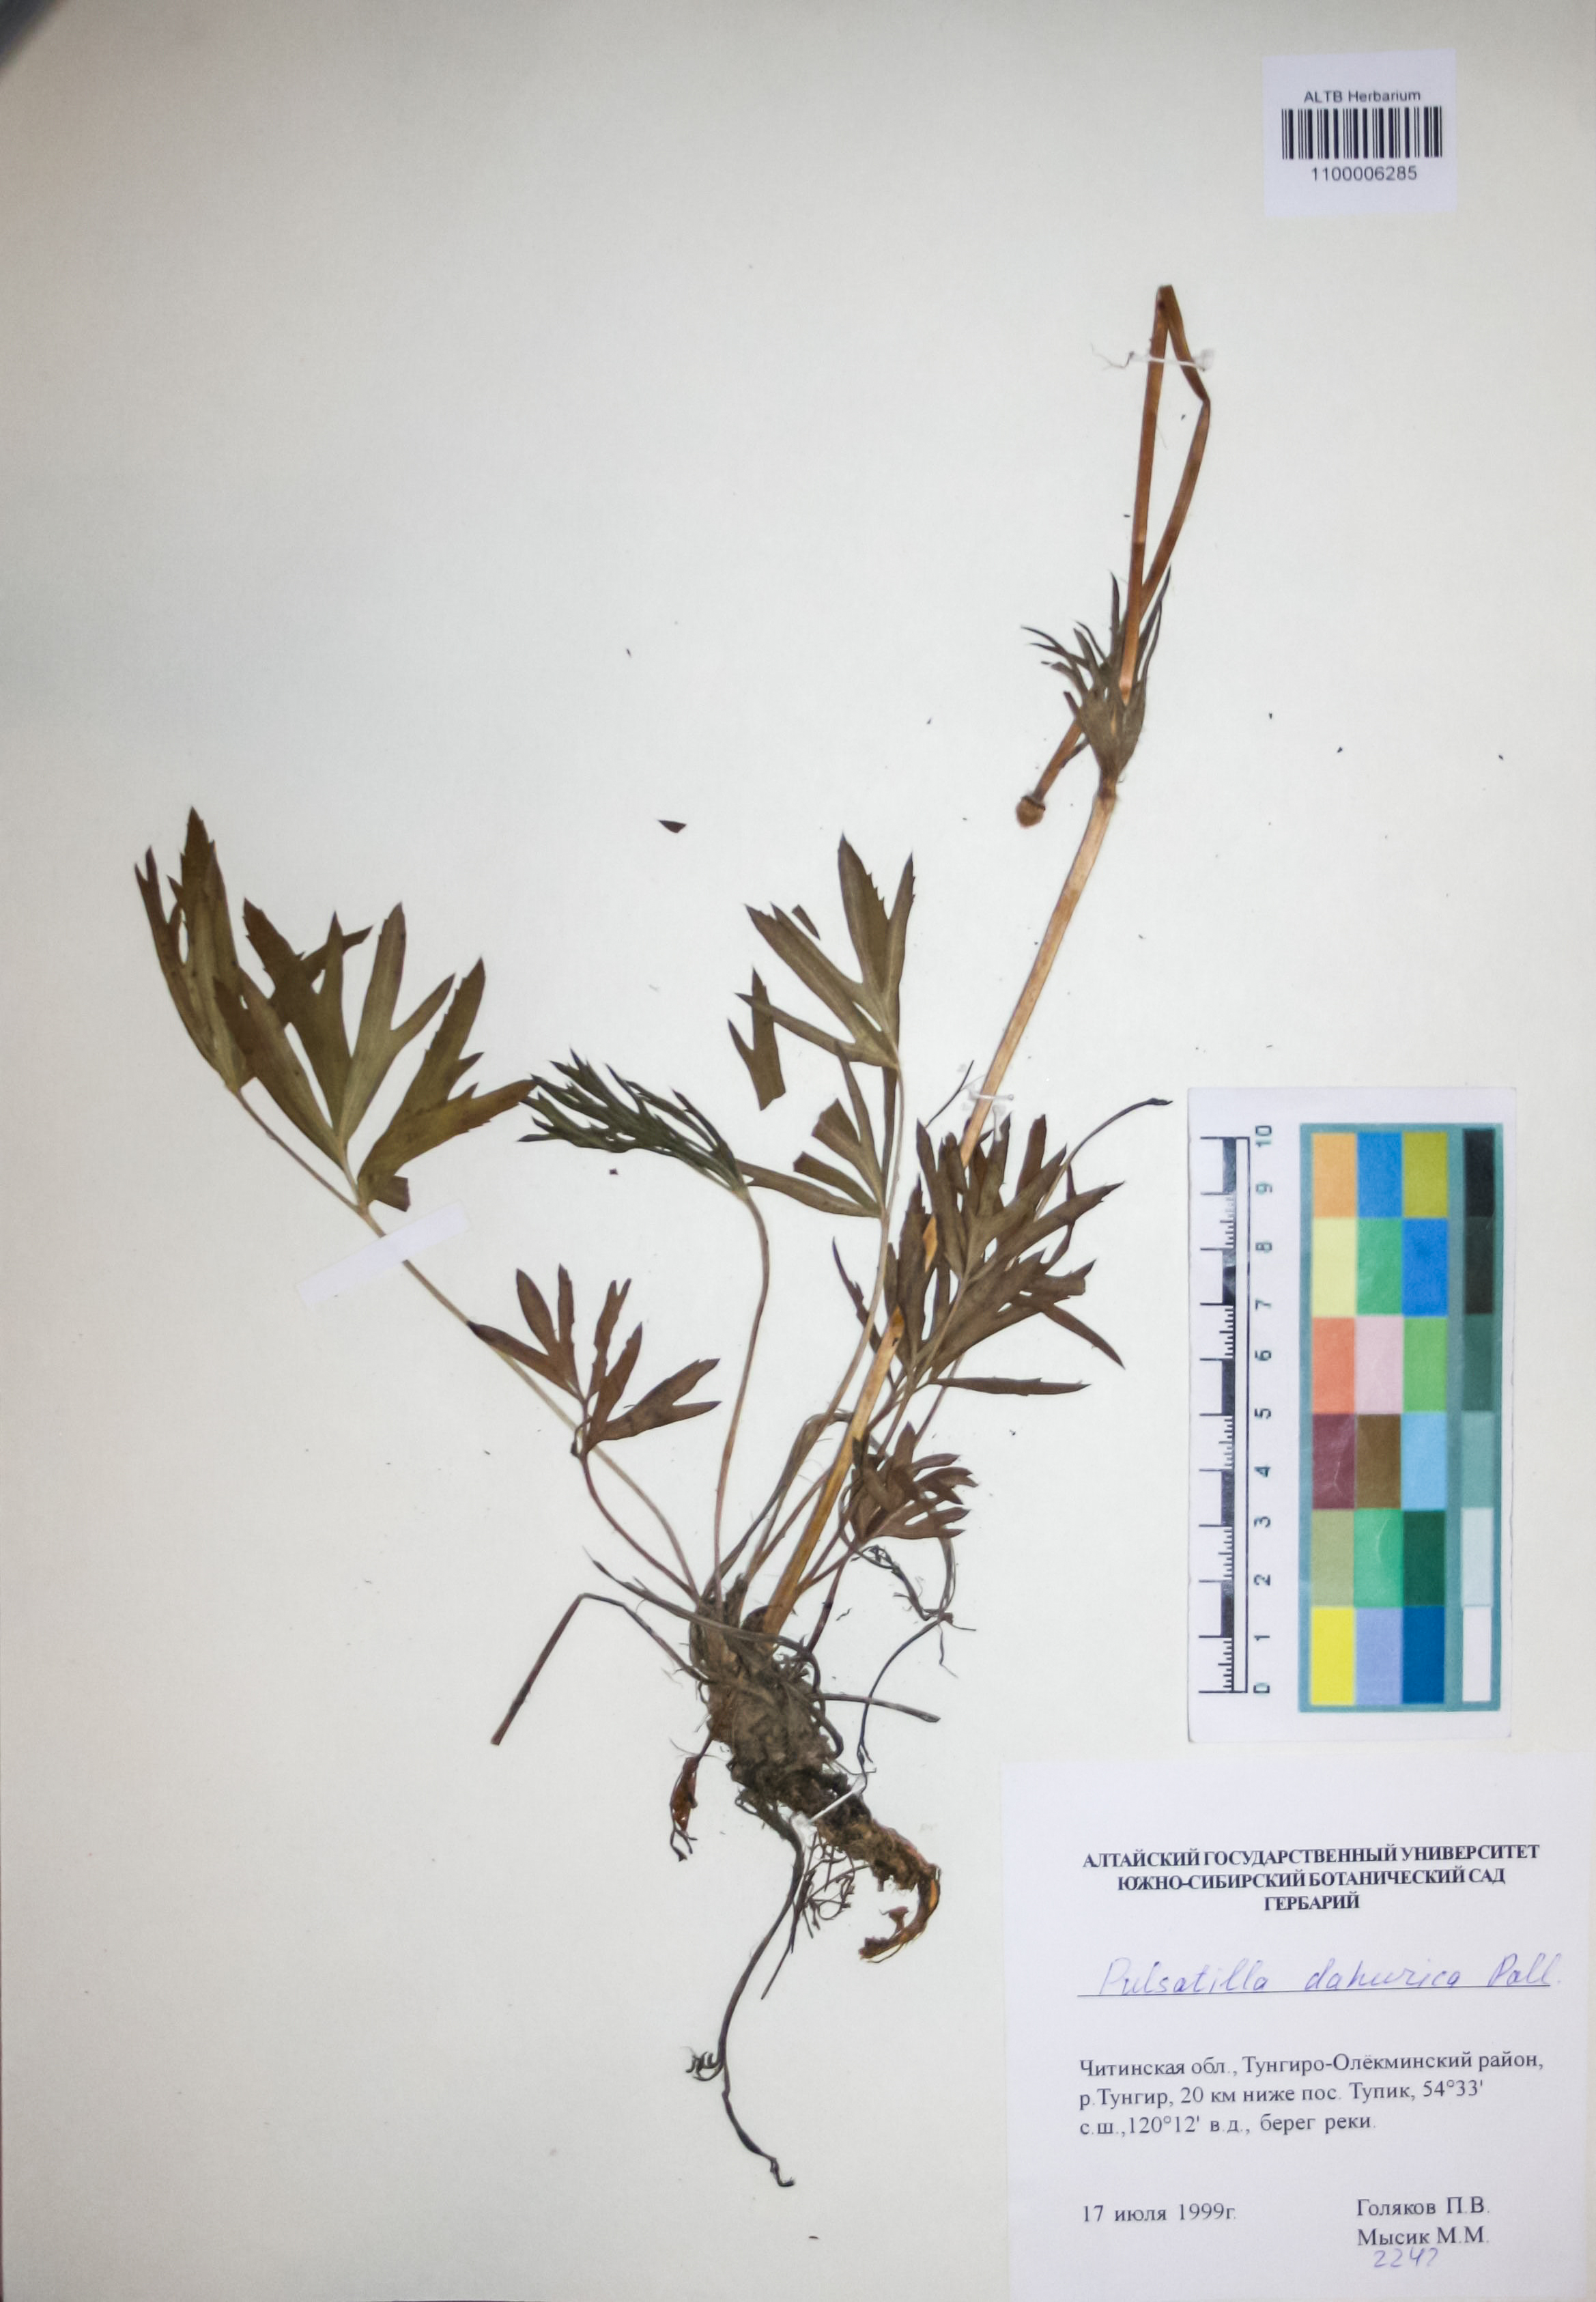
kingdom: Plantae
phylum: Tracheophyta
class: Magnoliopsida
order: Ranunculales
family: Ranunculaceae
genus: Pulsatilla
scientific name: Pulsatilla dahurica
